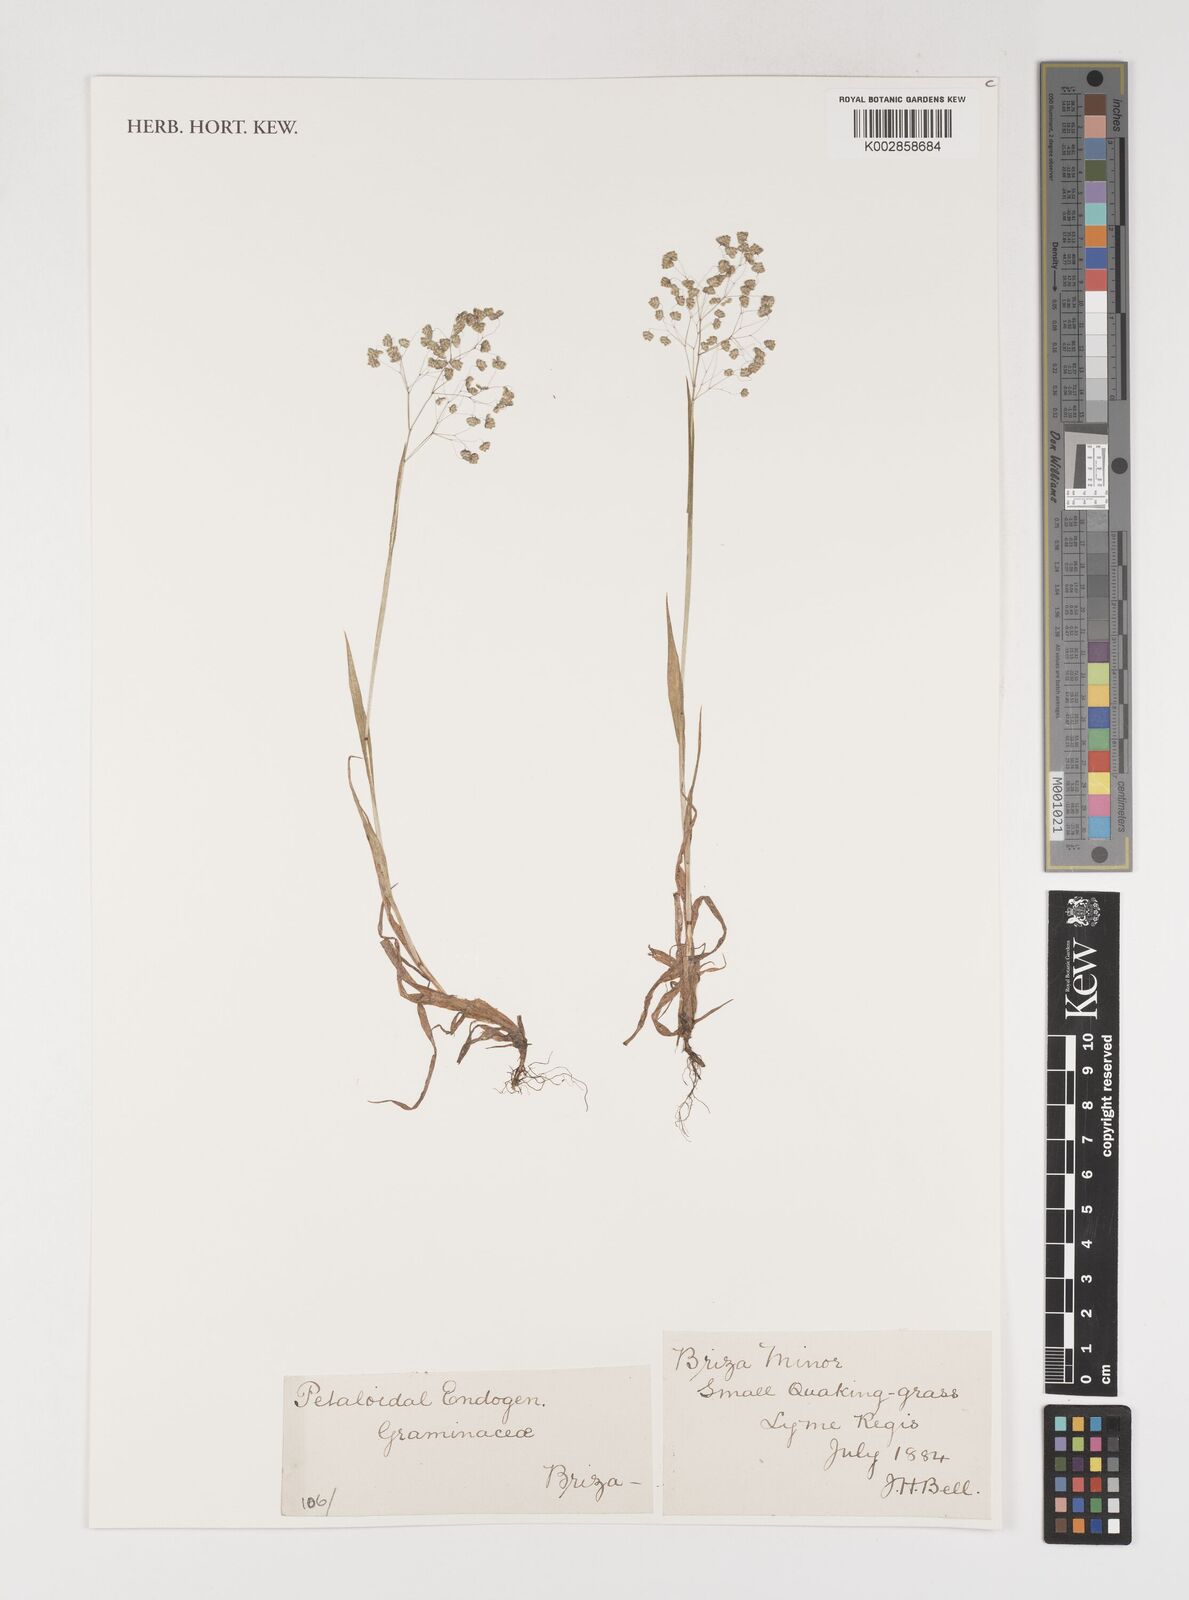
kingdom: Plantae
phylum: Tracheophyta
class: Liliopsida
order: Poales
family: Poaceae
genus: Briza
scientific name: Briza minor
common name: Lesser quaking-grass
